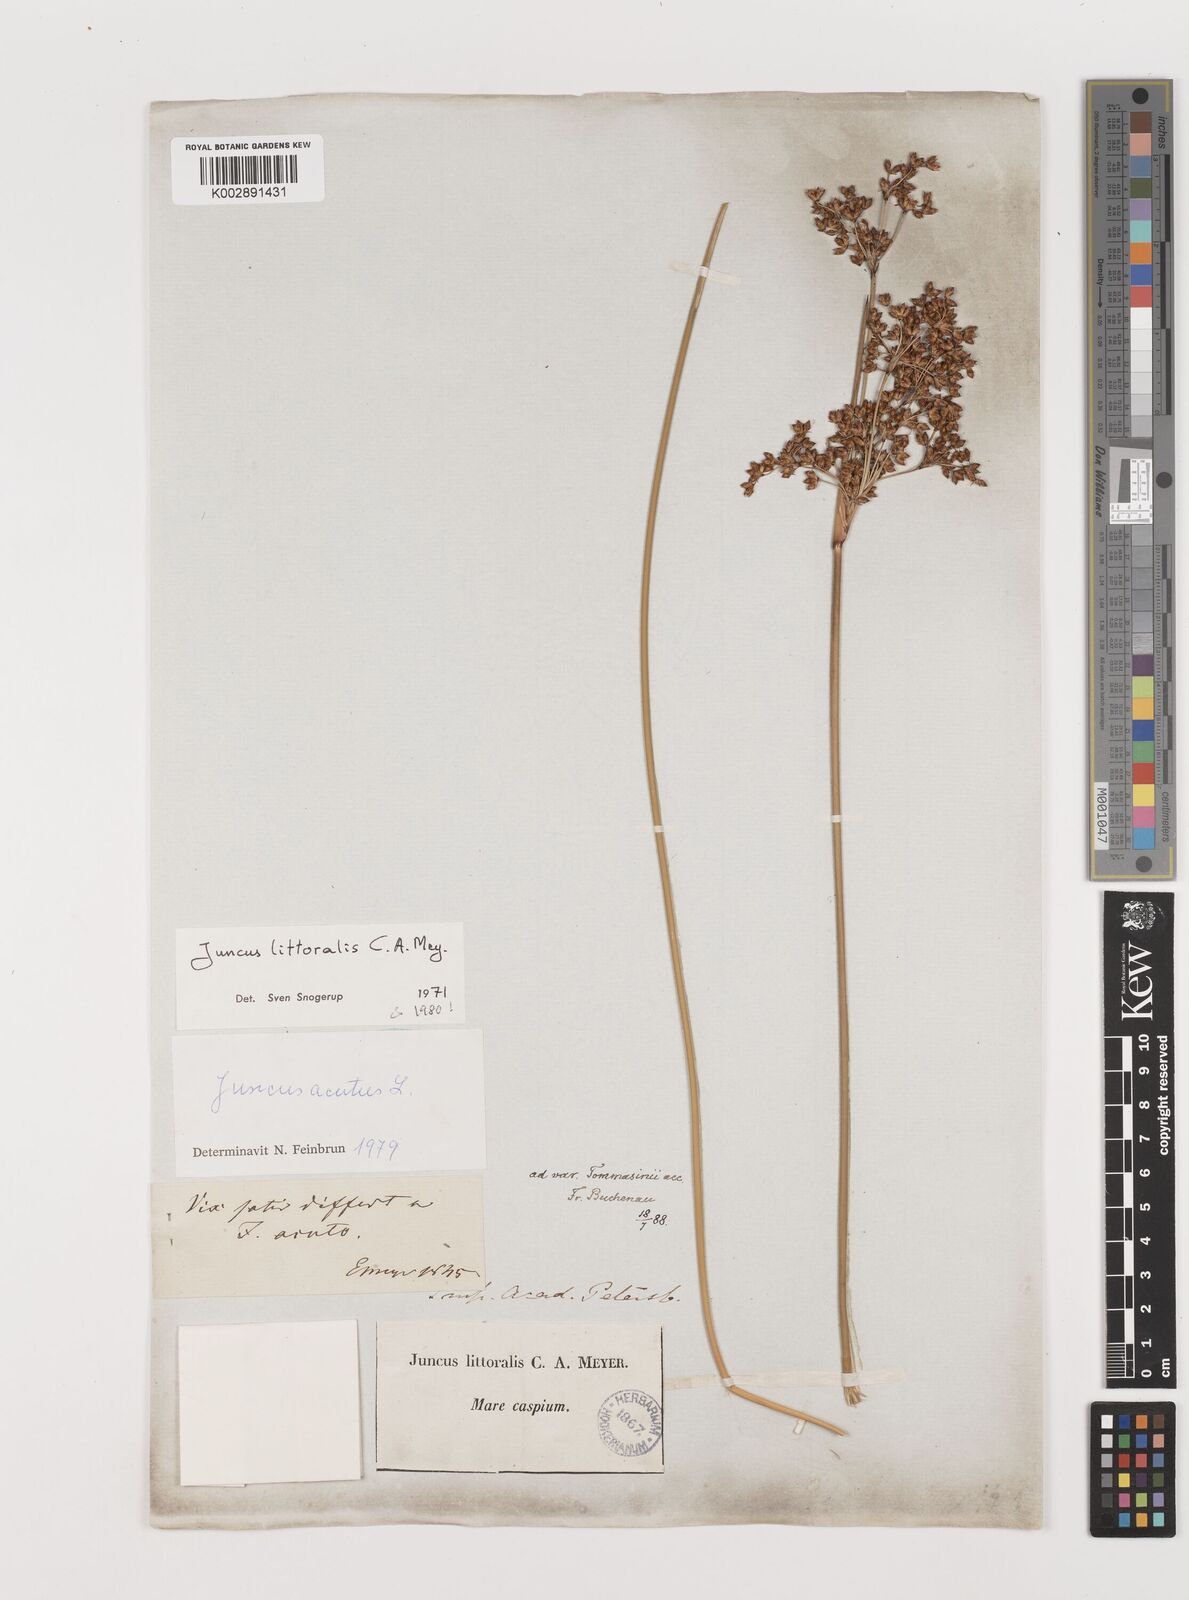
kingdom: Plantae
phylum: Tracheophyta
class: Liliopsida
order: Poales
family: Juncaceae
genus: Juncus
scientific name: Juncus littoralis
